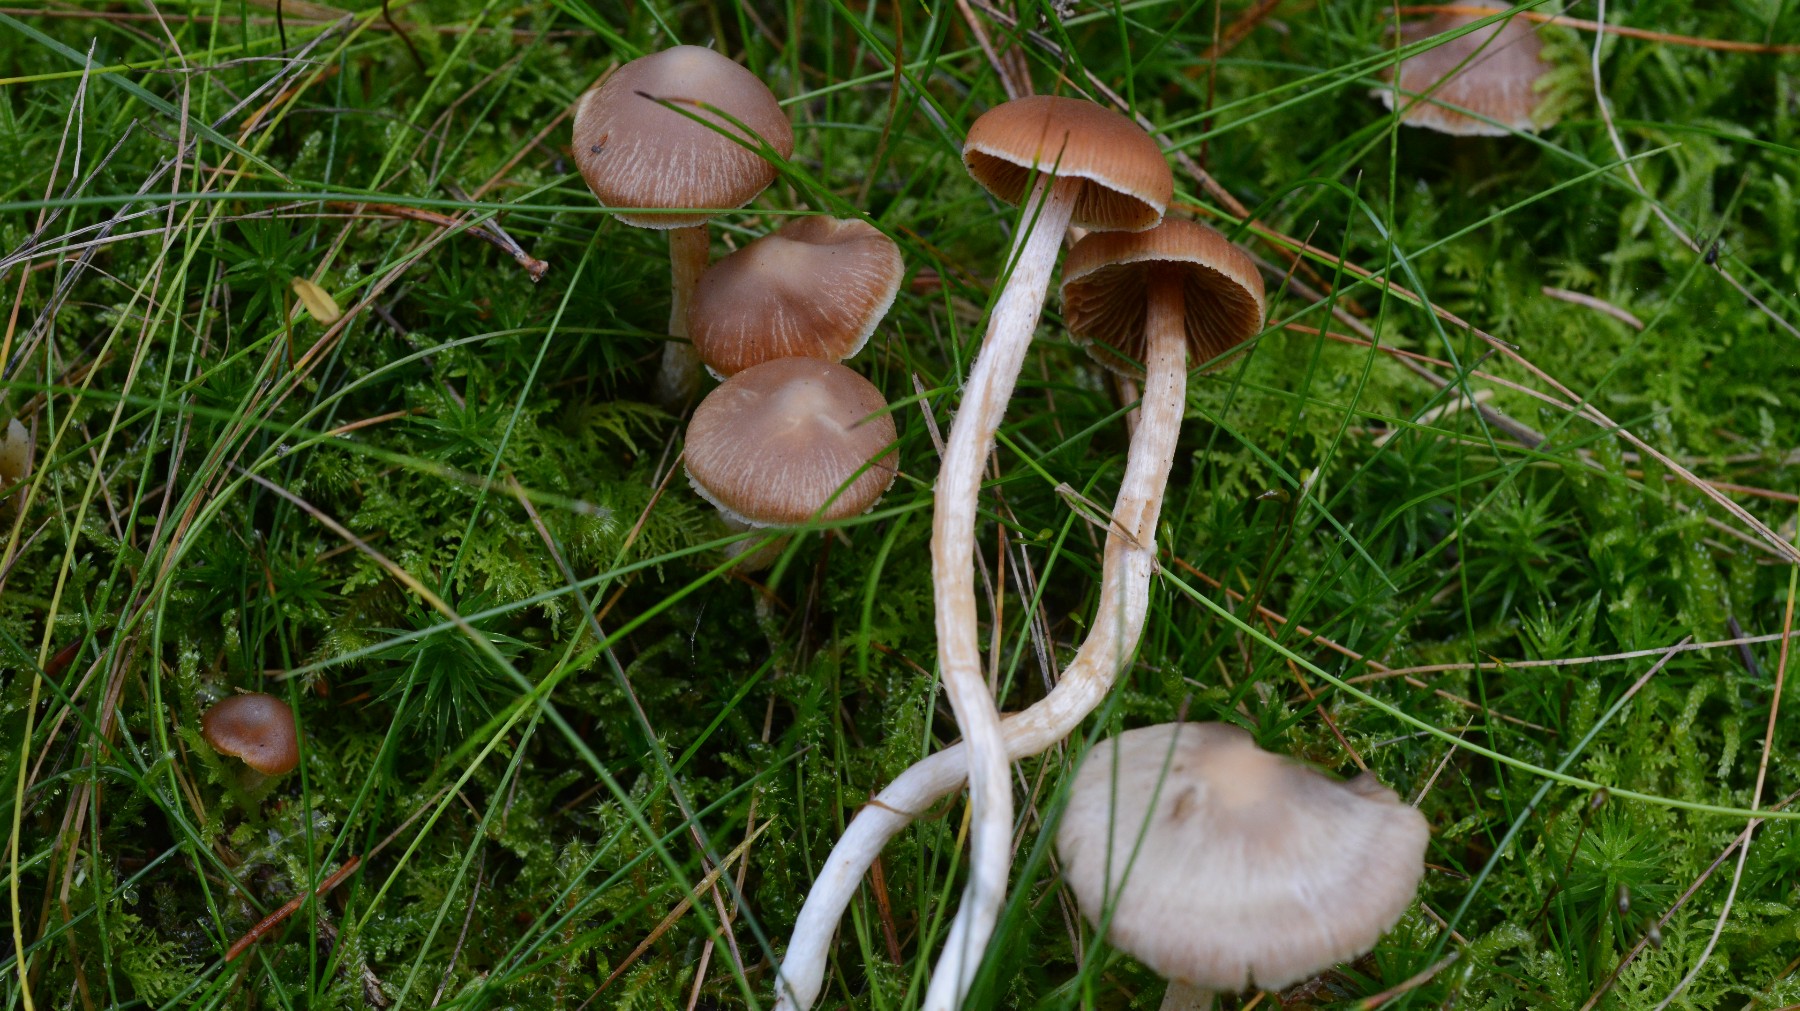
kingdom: Fungi
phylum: Basidiomycota
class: Agaricomycetes
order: Agaricales
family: Cortinariaceae
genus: Cortinarius
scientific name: Cortinarius
